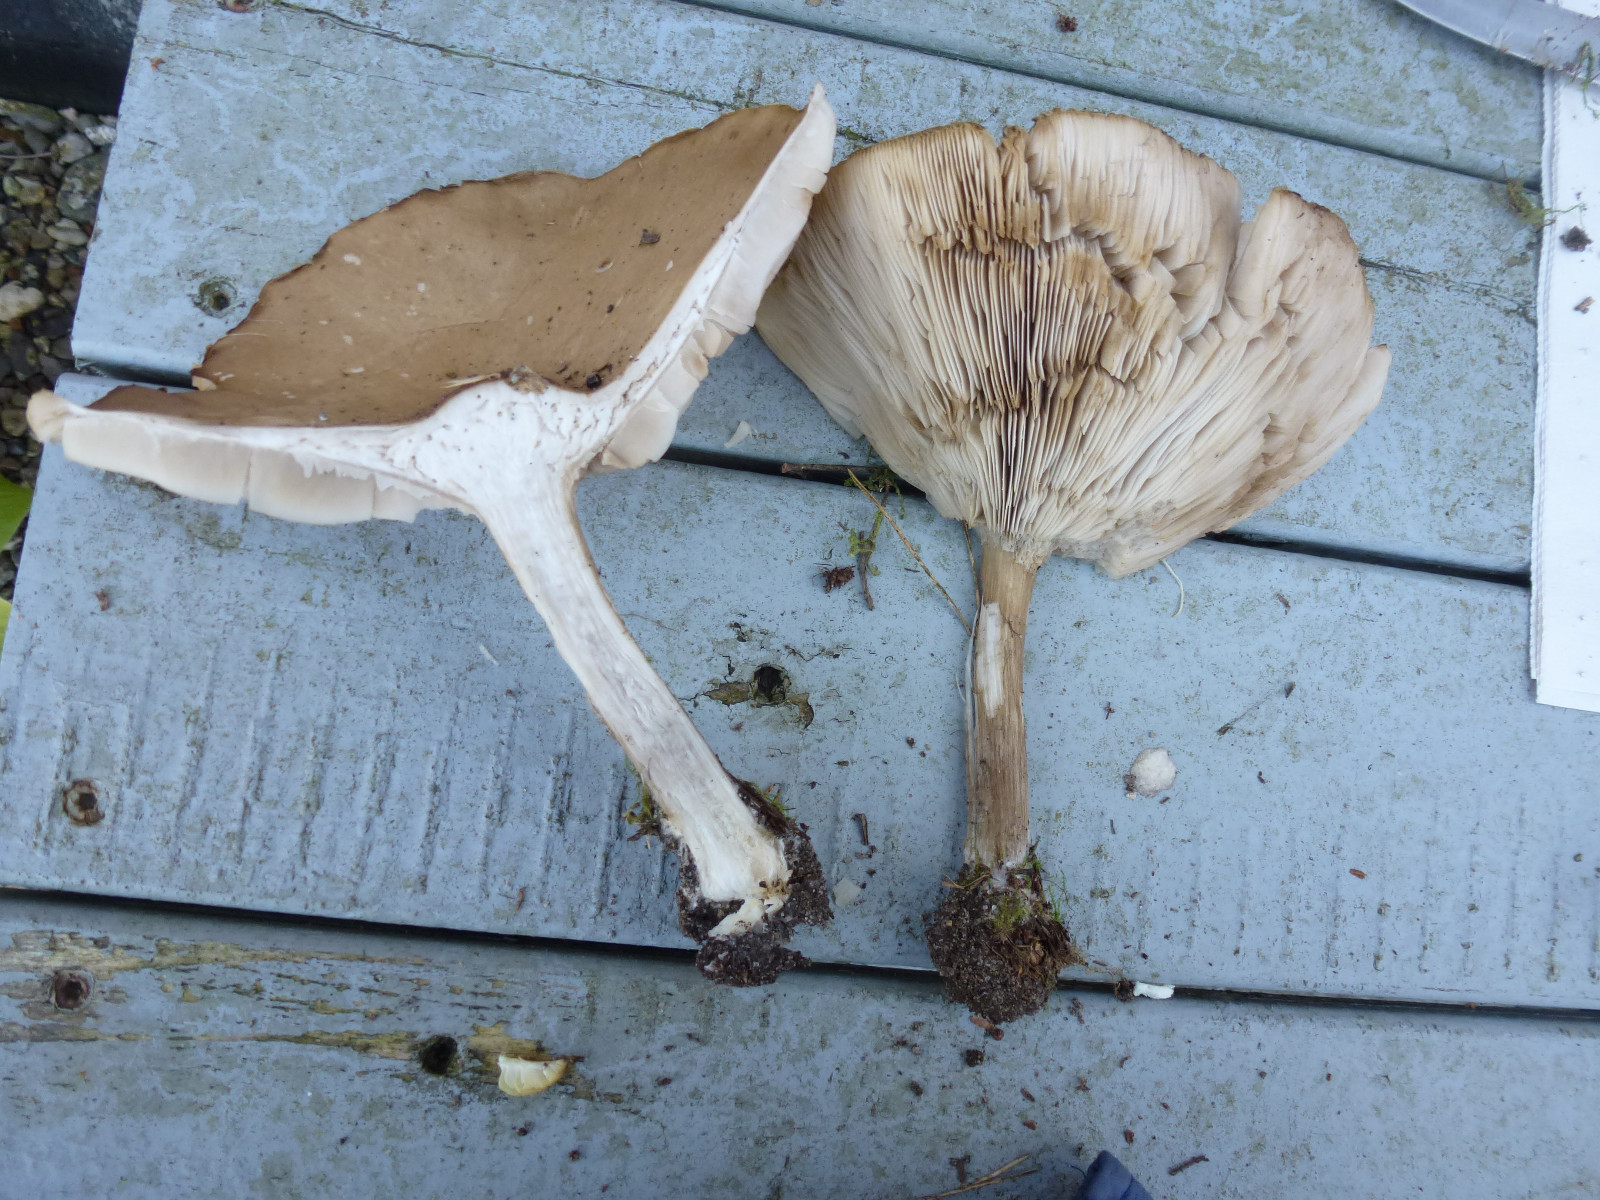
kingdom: Fungi
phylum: Basidiomycota
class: Agaricomycetes
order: Agaricales
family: Tricholomataceae
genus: Melanoleuca
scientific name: Melanoleuca grammopodia
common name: stribestokket munkehat
